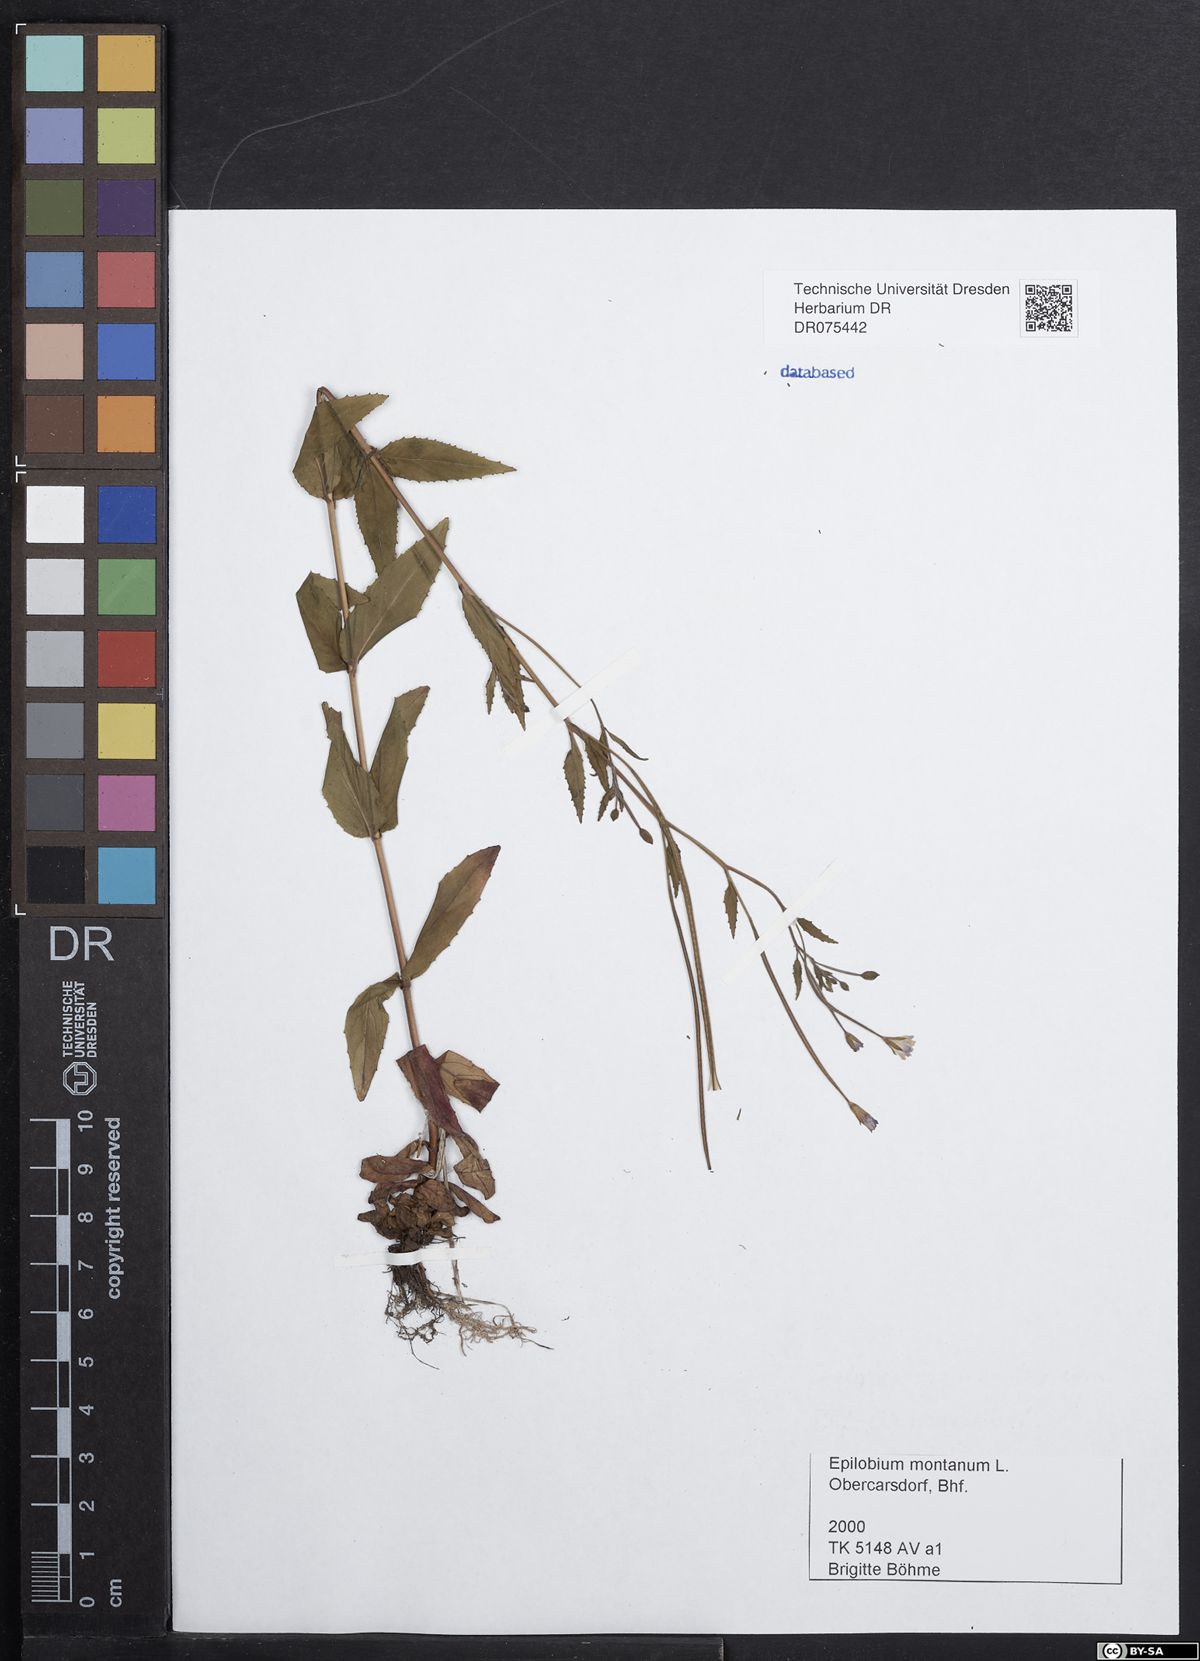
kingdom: Plantae
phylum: Tracheophyta
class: Magnoliopsida
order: Myrtales
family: Onagraceae
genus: Epilobium
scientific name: Epilobium montanum
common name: Broad-leaved willowherb
